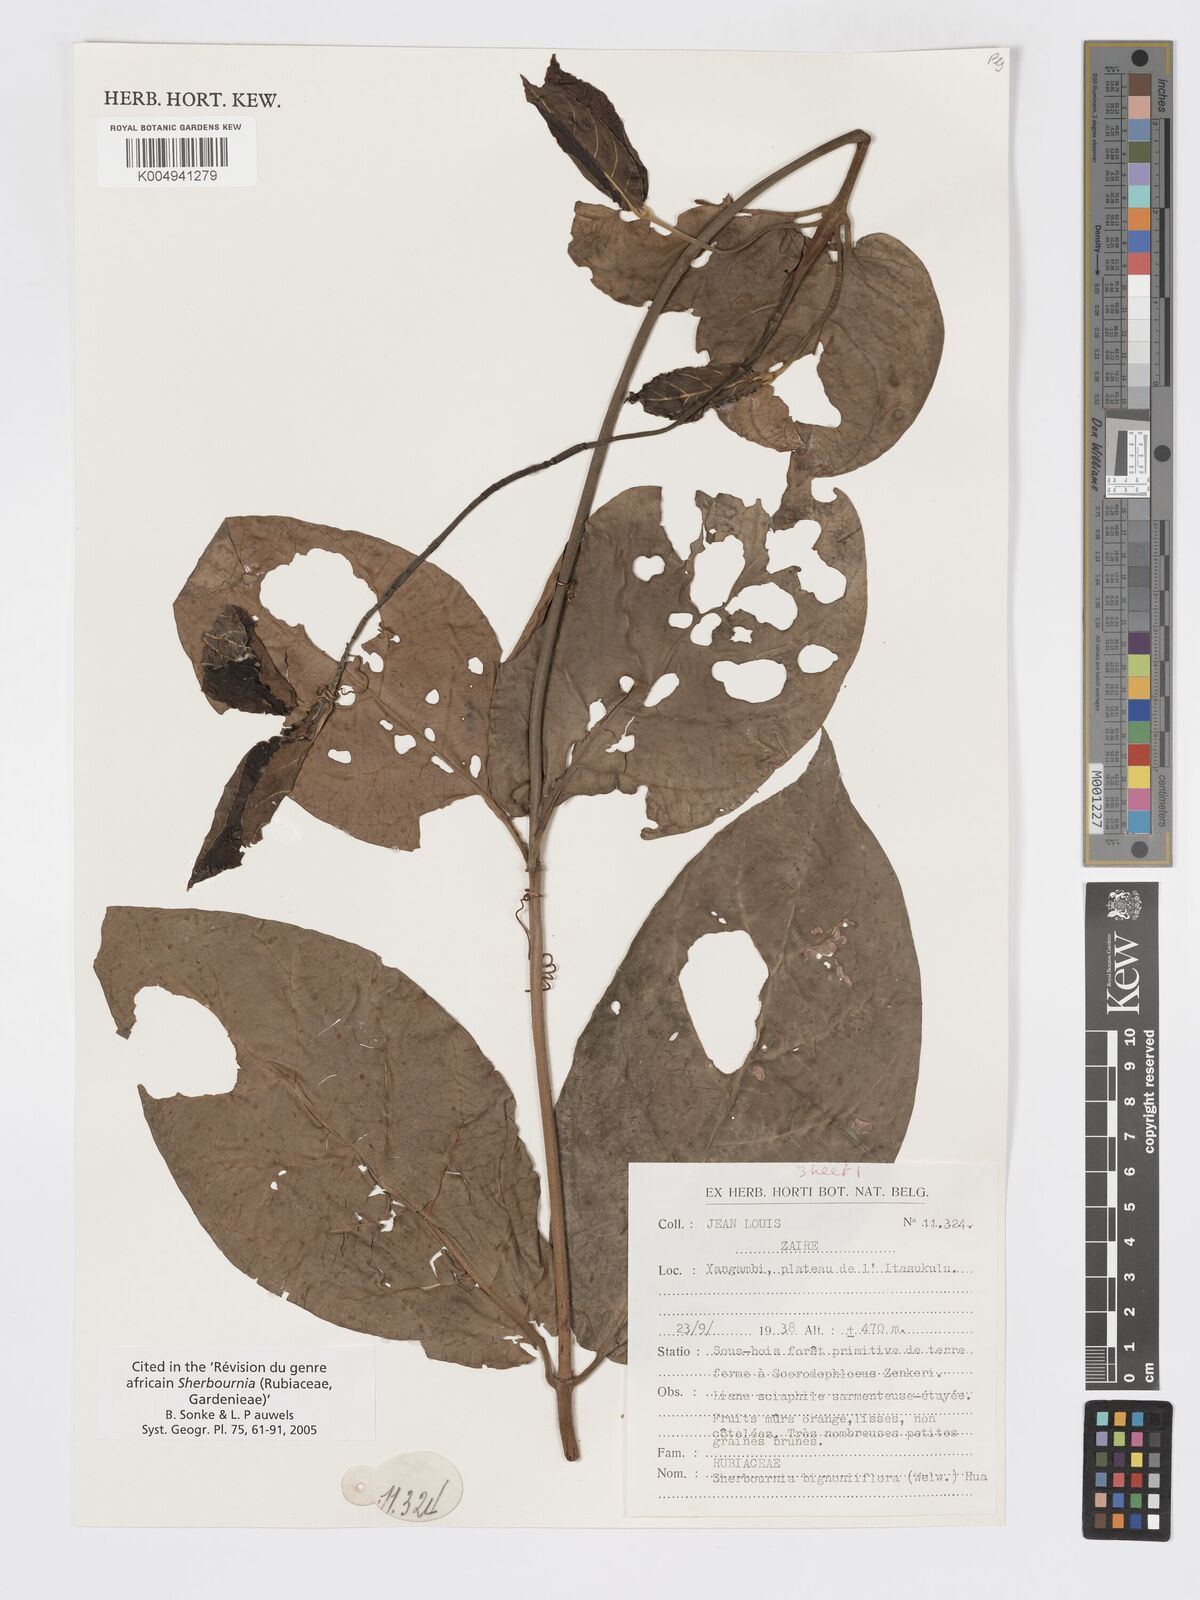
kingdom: Plantae
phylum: Tracheophyta
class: Magnoliopsida
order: Gentianales
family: Rubiaceae
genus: Sherbournia
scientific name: Sherbournia bignoniiflora
